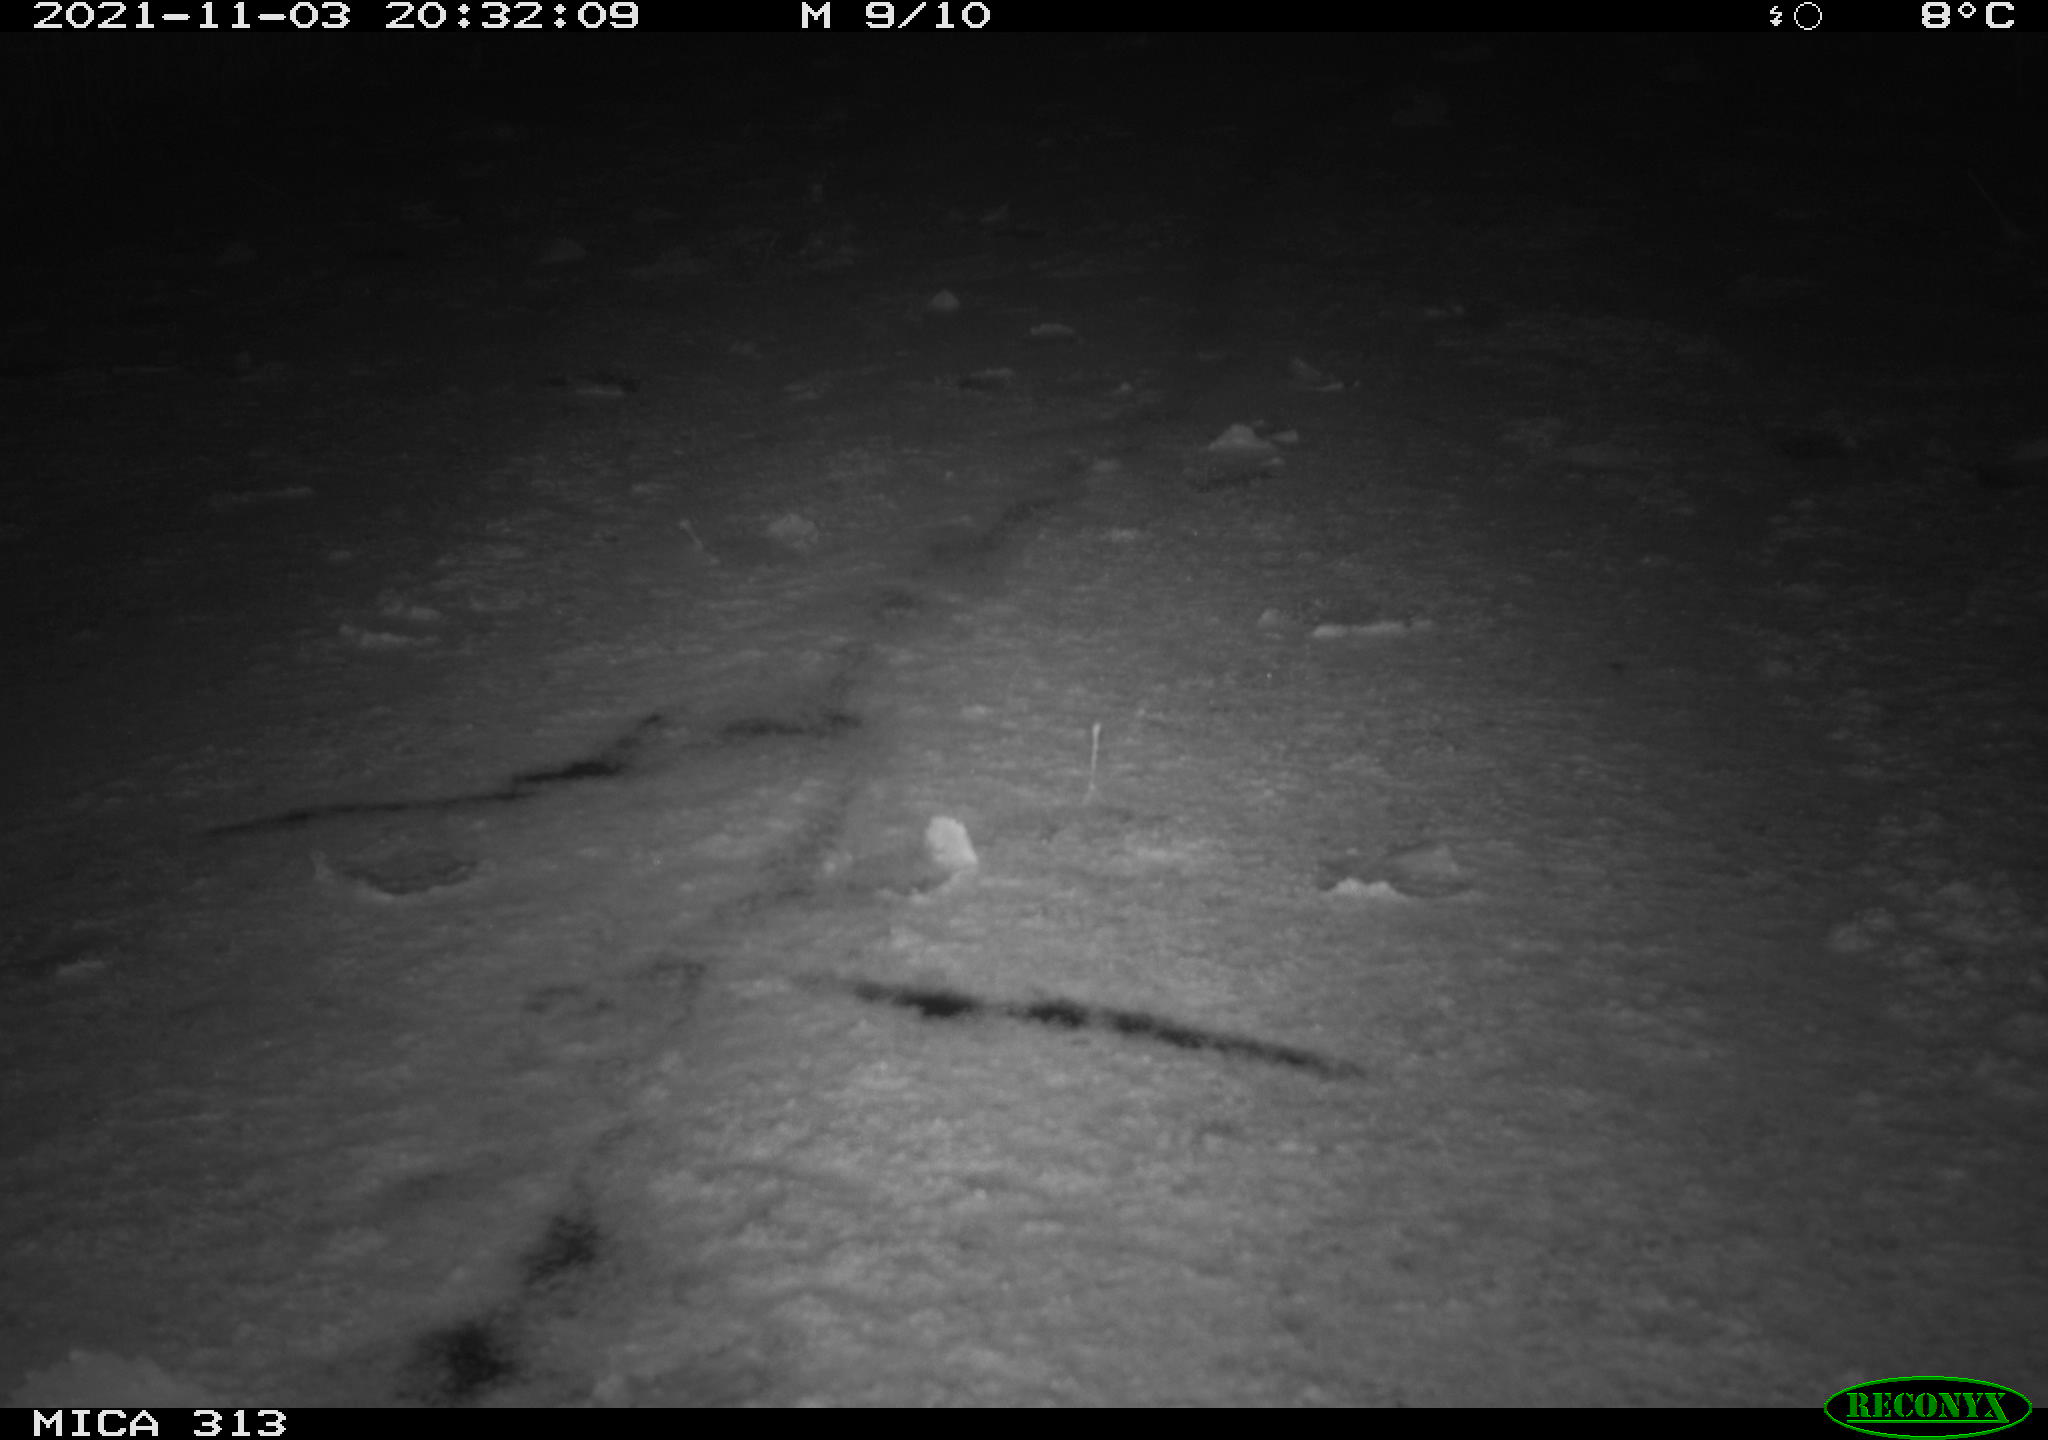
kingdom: Animalia
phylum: Chordata
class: Aves
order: Gruiformes
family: Rallidae
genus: Fulica
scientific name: Fulica atra
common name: Eurasian coot
